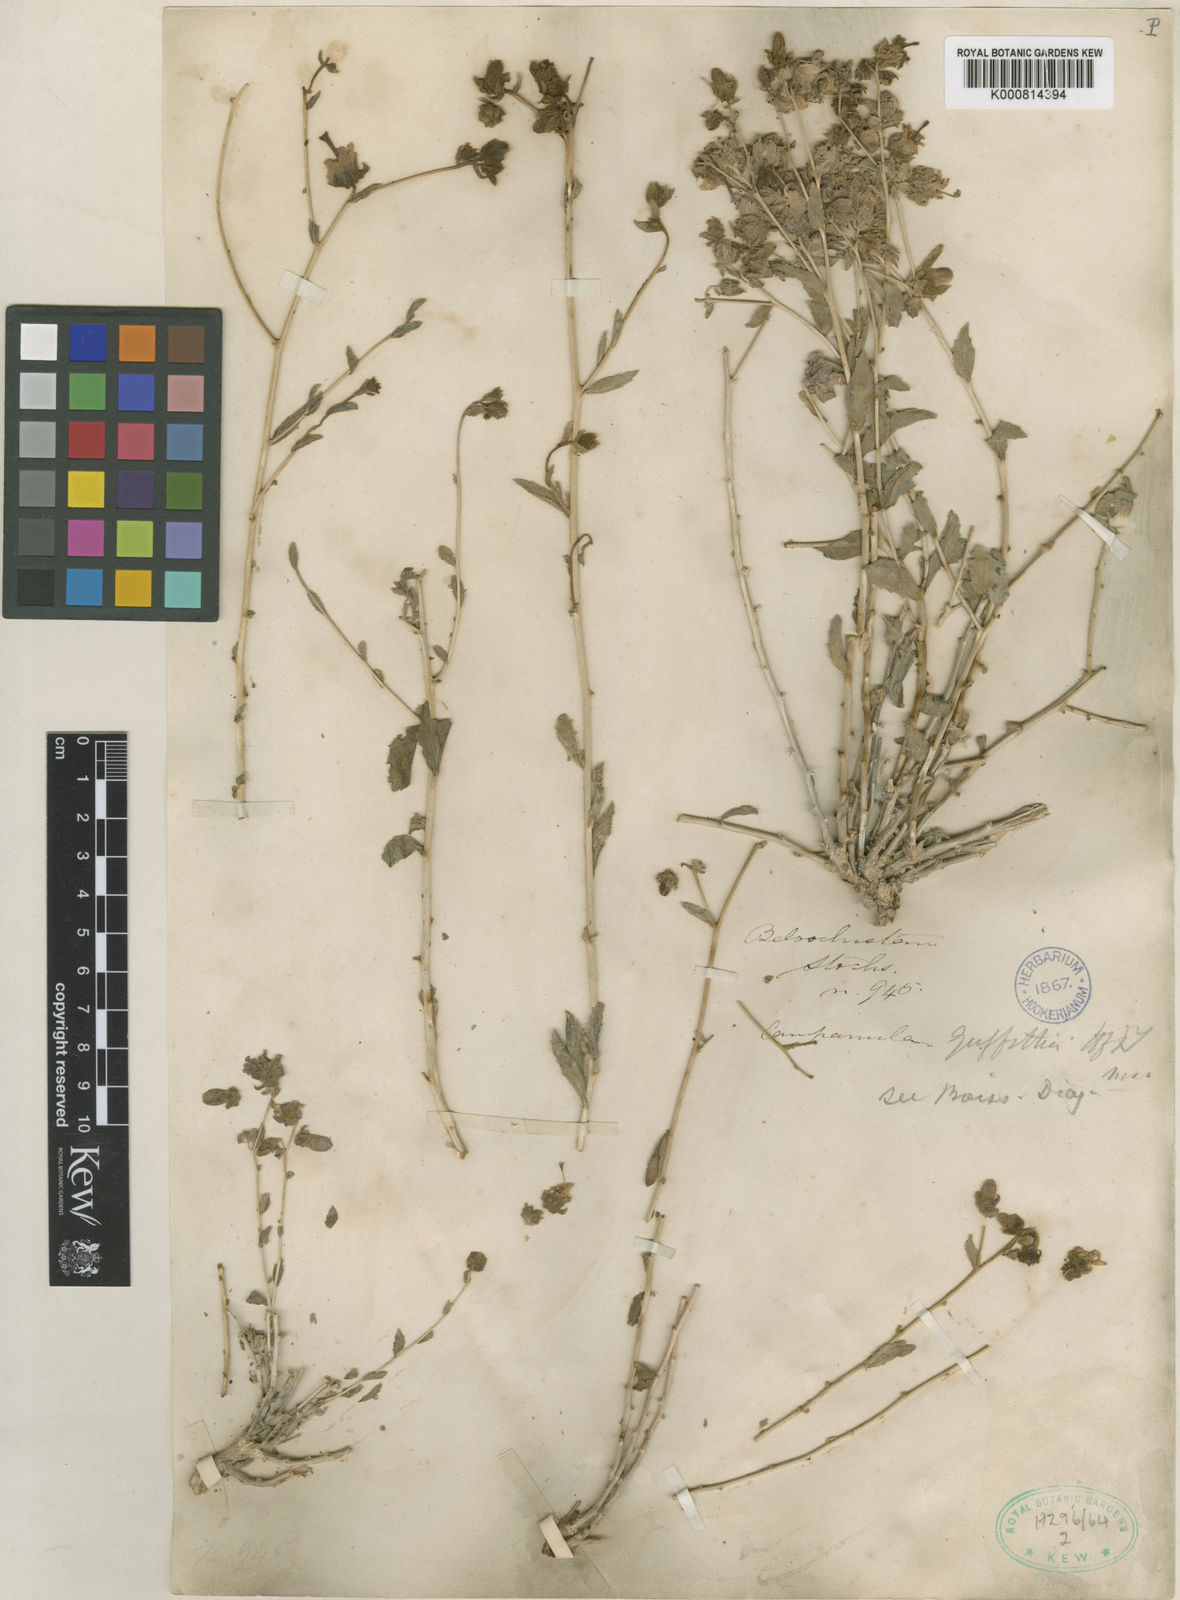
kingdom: Plantae
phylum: Tracheophyta
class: Magnoliopsida
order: Asterales
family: Campanulaceae
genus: Campanula
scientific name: Campanula leucoclada
